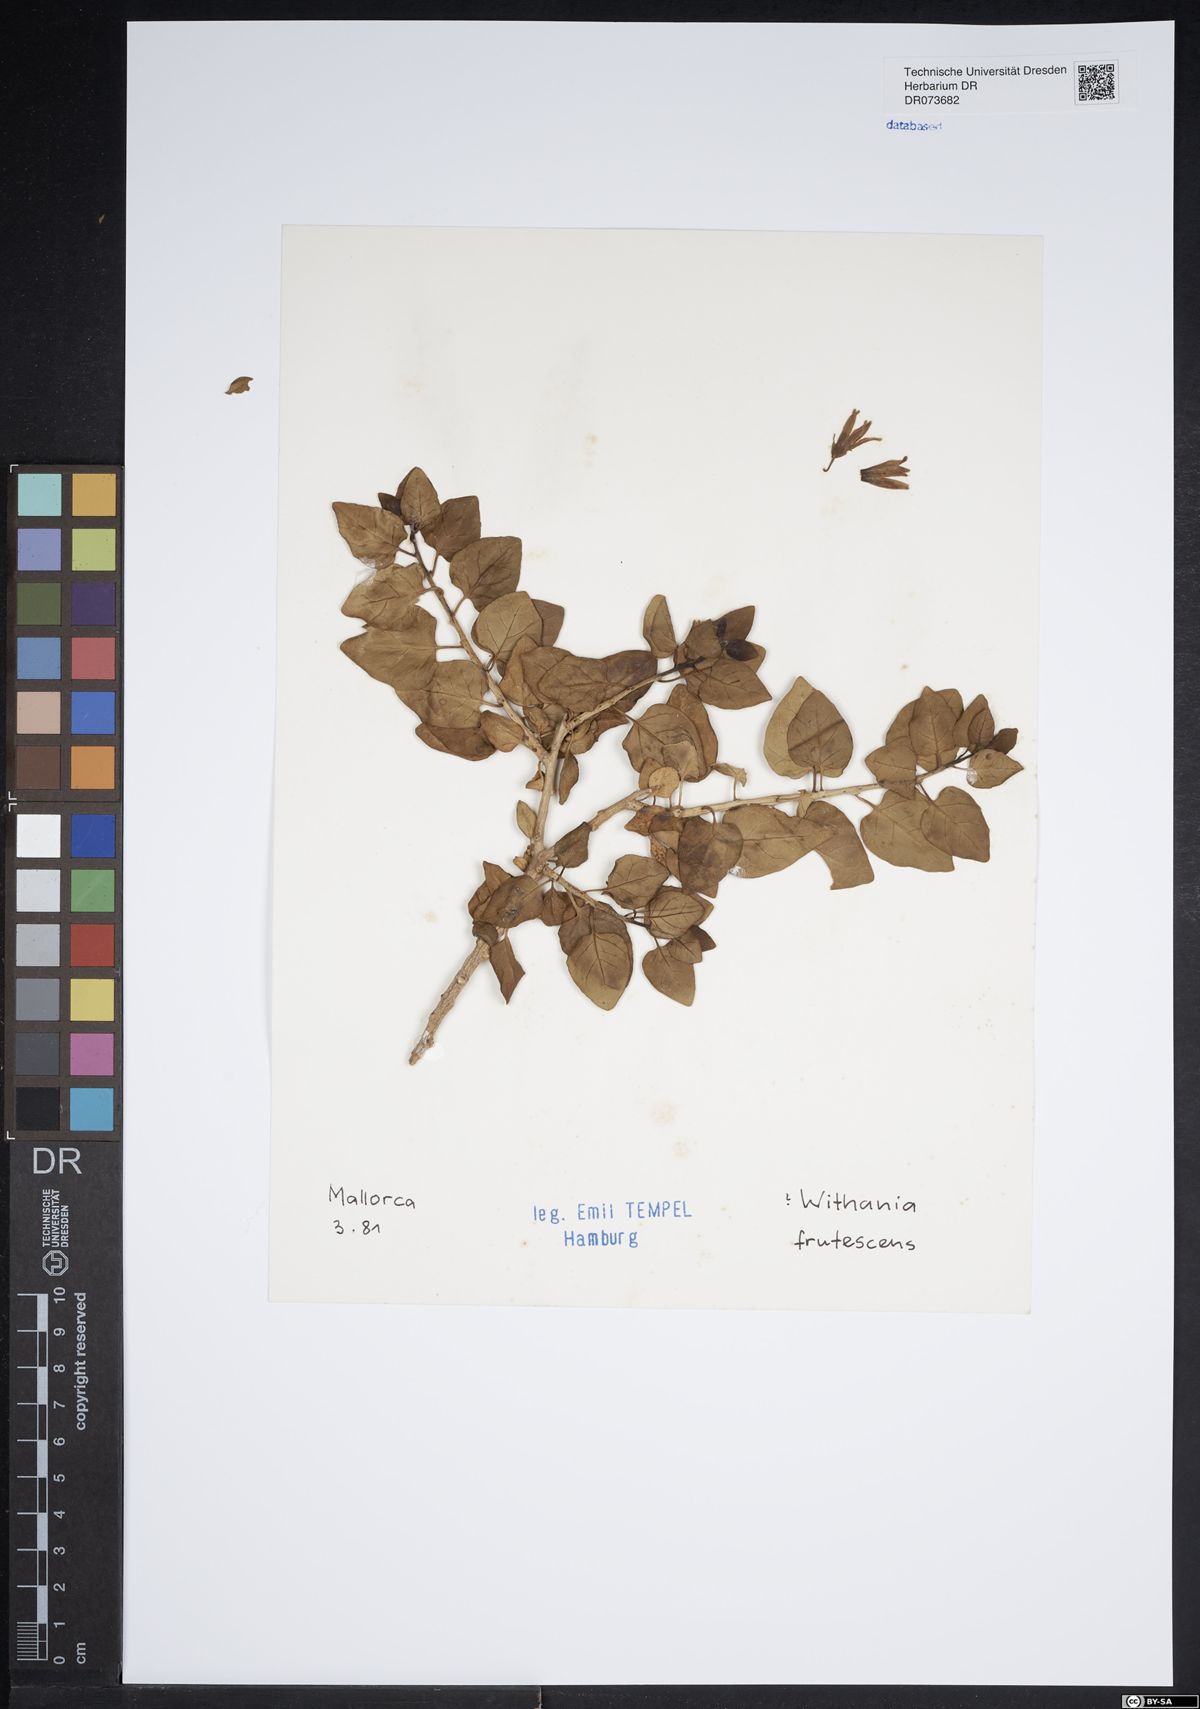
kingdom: Plantae
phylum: Tracheophyta
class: Magnoliopsida
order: Solanales
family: Solanaceae
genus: Withania
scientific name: Withania frutescens
